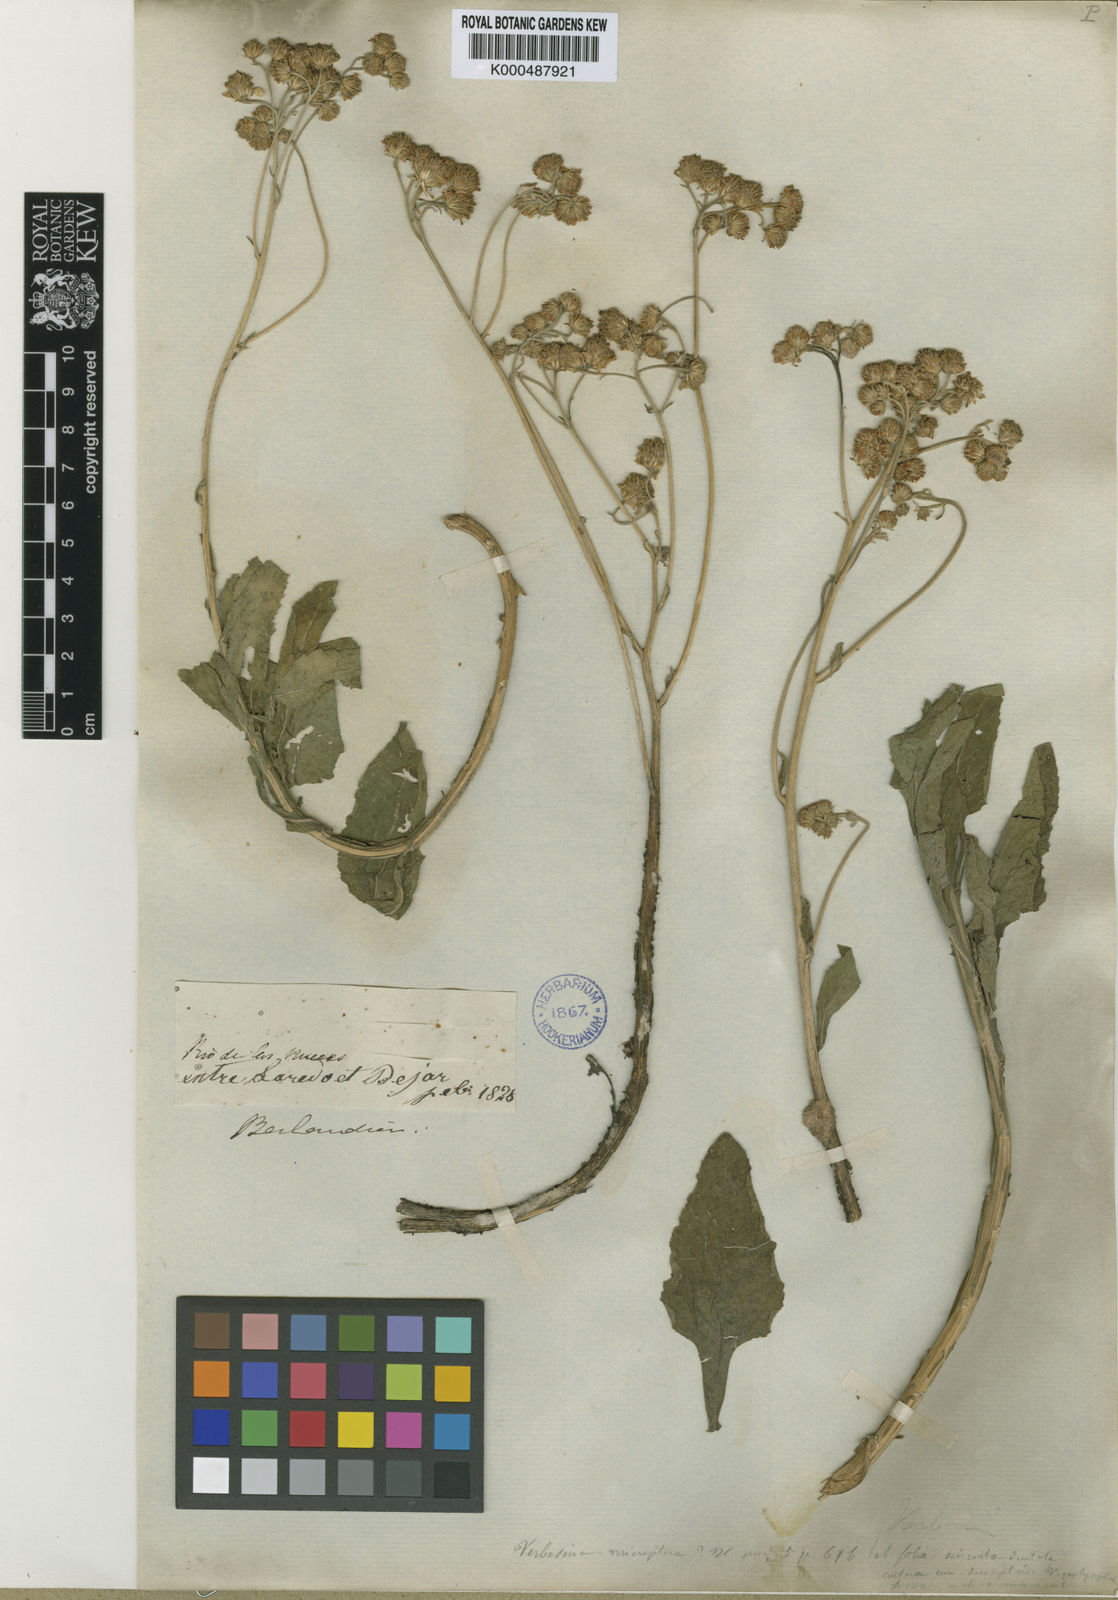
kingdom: Plantae
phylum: Tracheophyta
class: Magnoliopsida
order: Asterales
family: Asteraceae
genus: Verbesina
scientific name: Verbesina microptera
